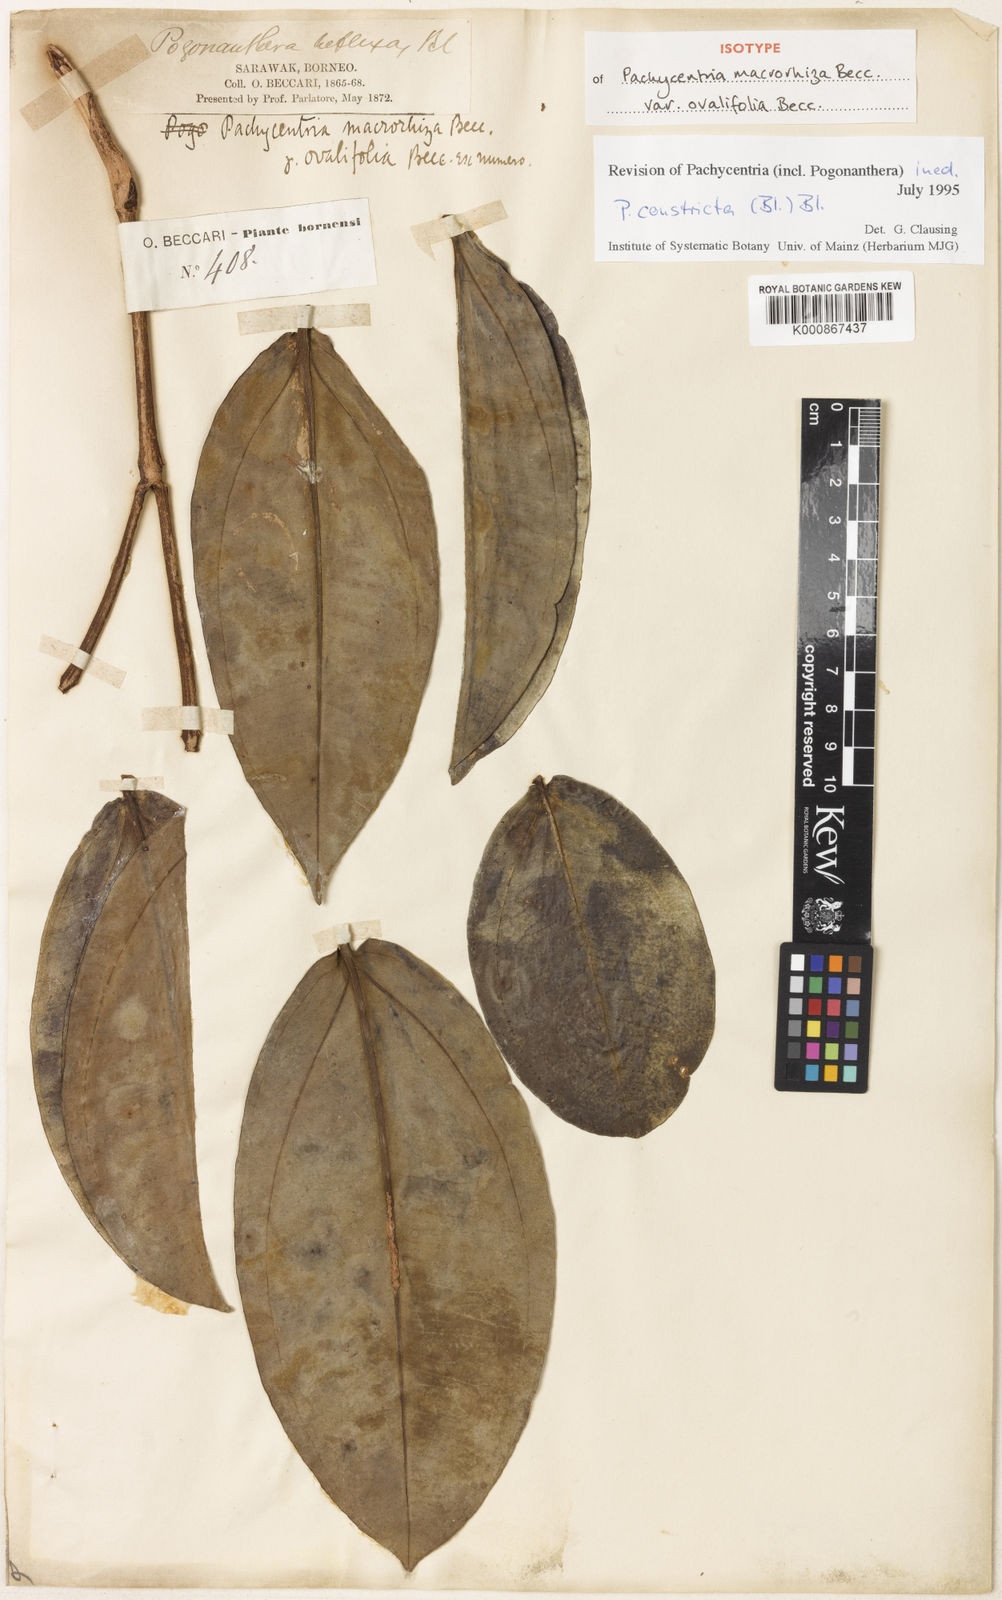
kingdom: Plantae
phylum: Tracheophyta
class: Magnoliopsida
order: Myrtales
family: Melastomataceae
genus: Pachycentria
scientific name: Pachycentria constricta
